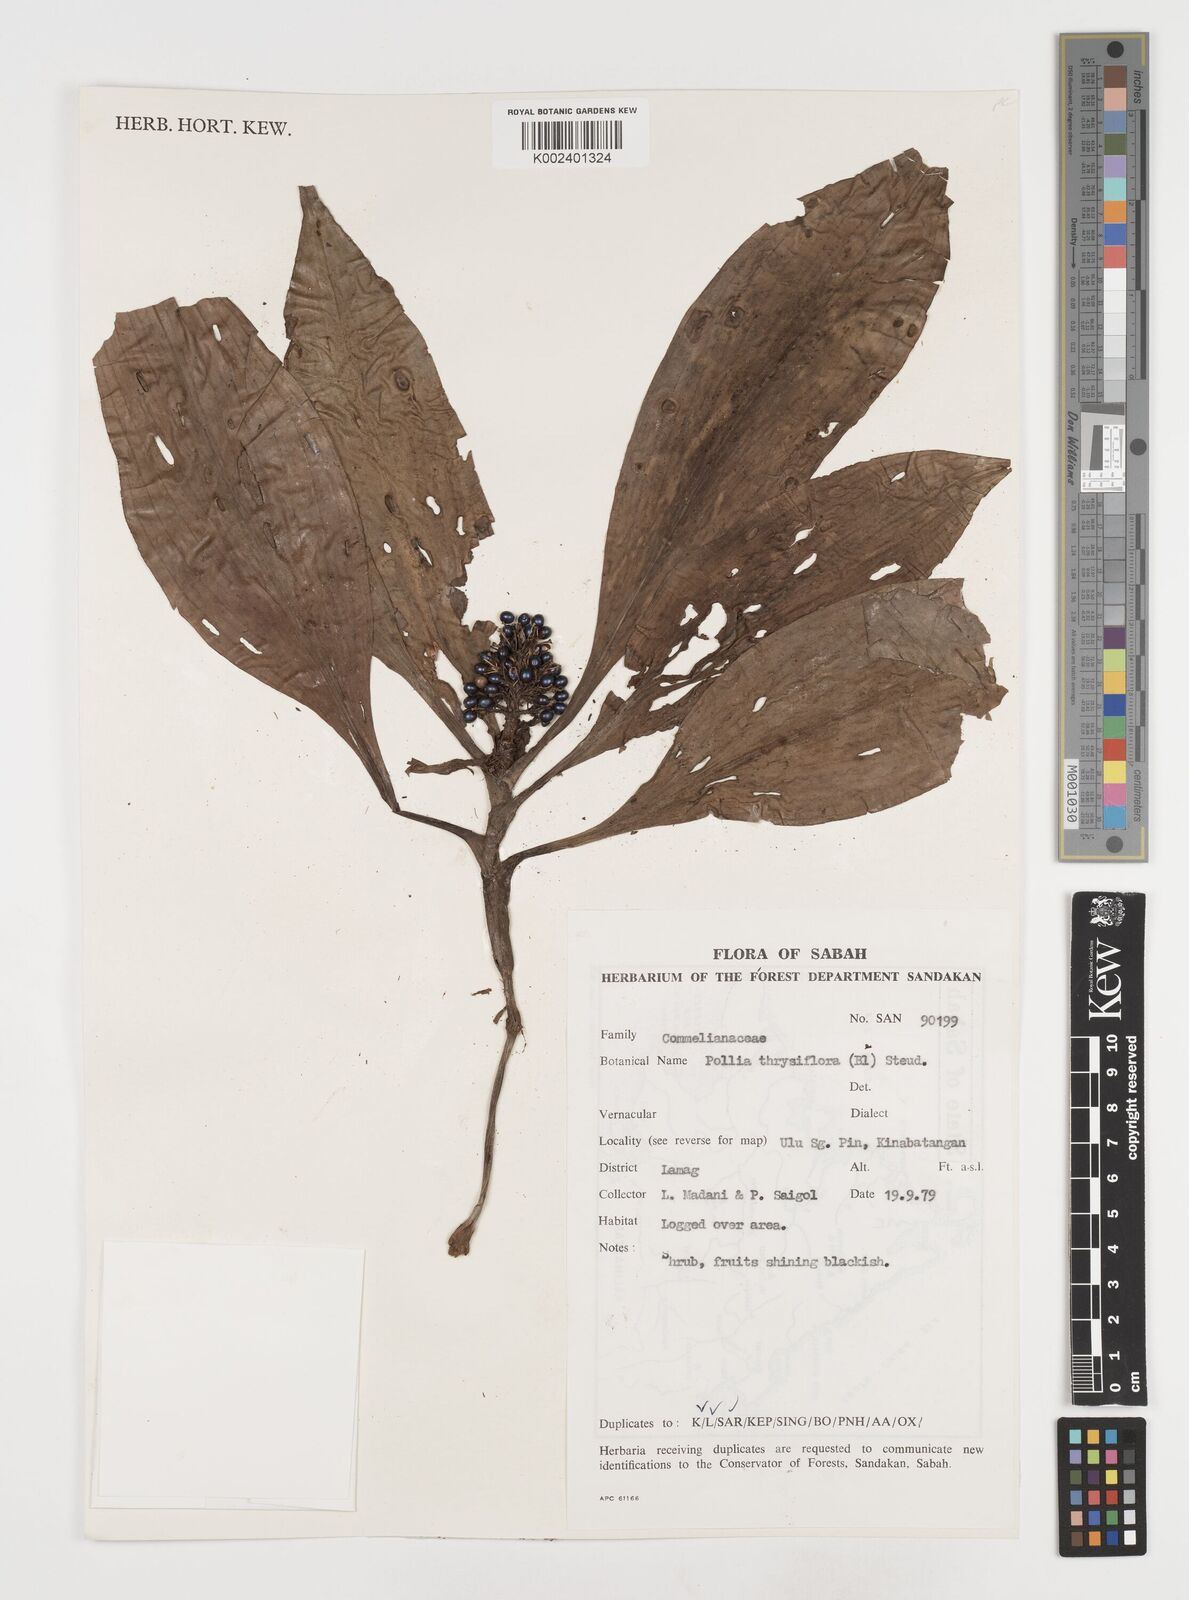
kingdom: Plantae
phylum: Tracheophyta
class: Liliopsida
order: Commelinales
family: Commelinaceae
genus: Pollia
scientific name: Pollia thyrsiflora
